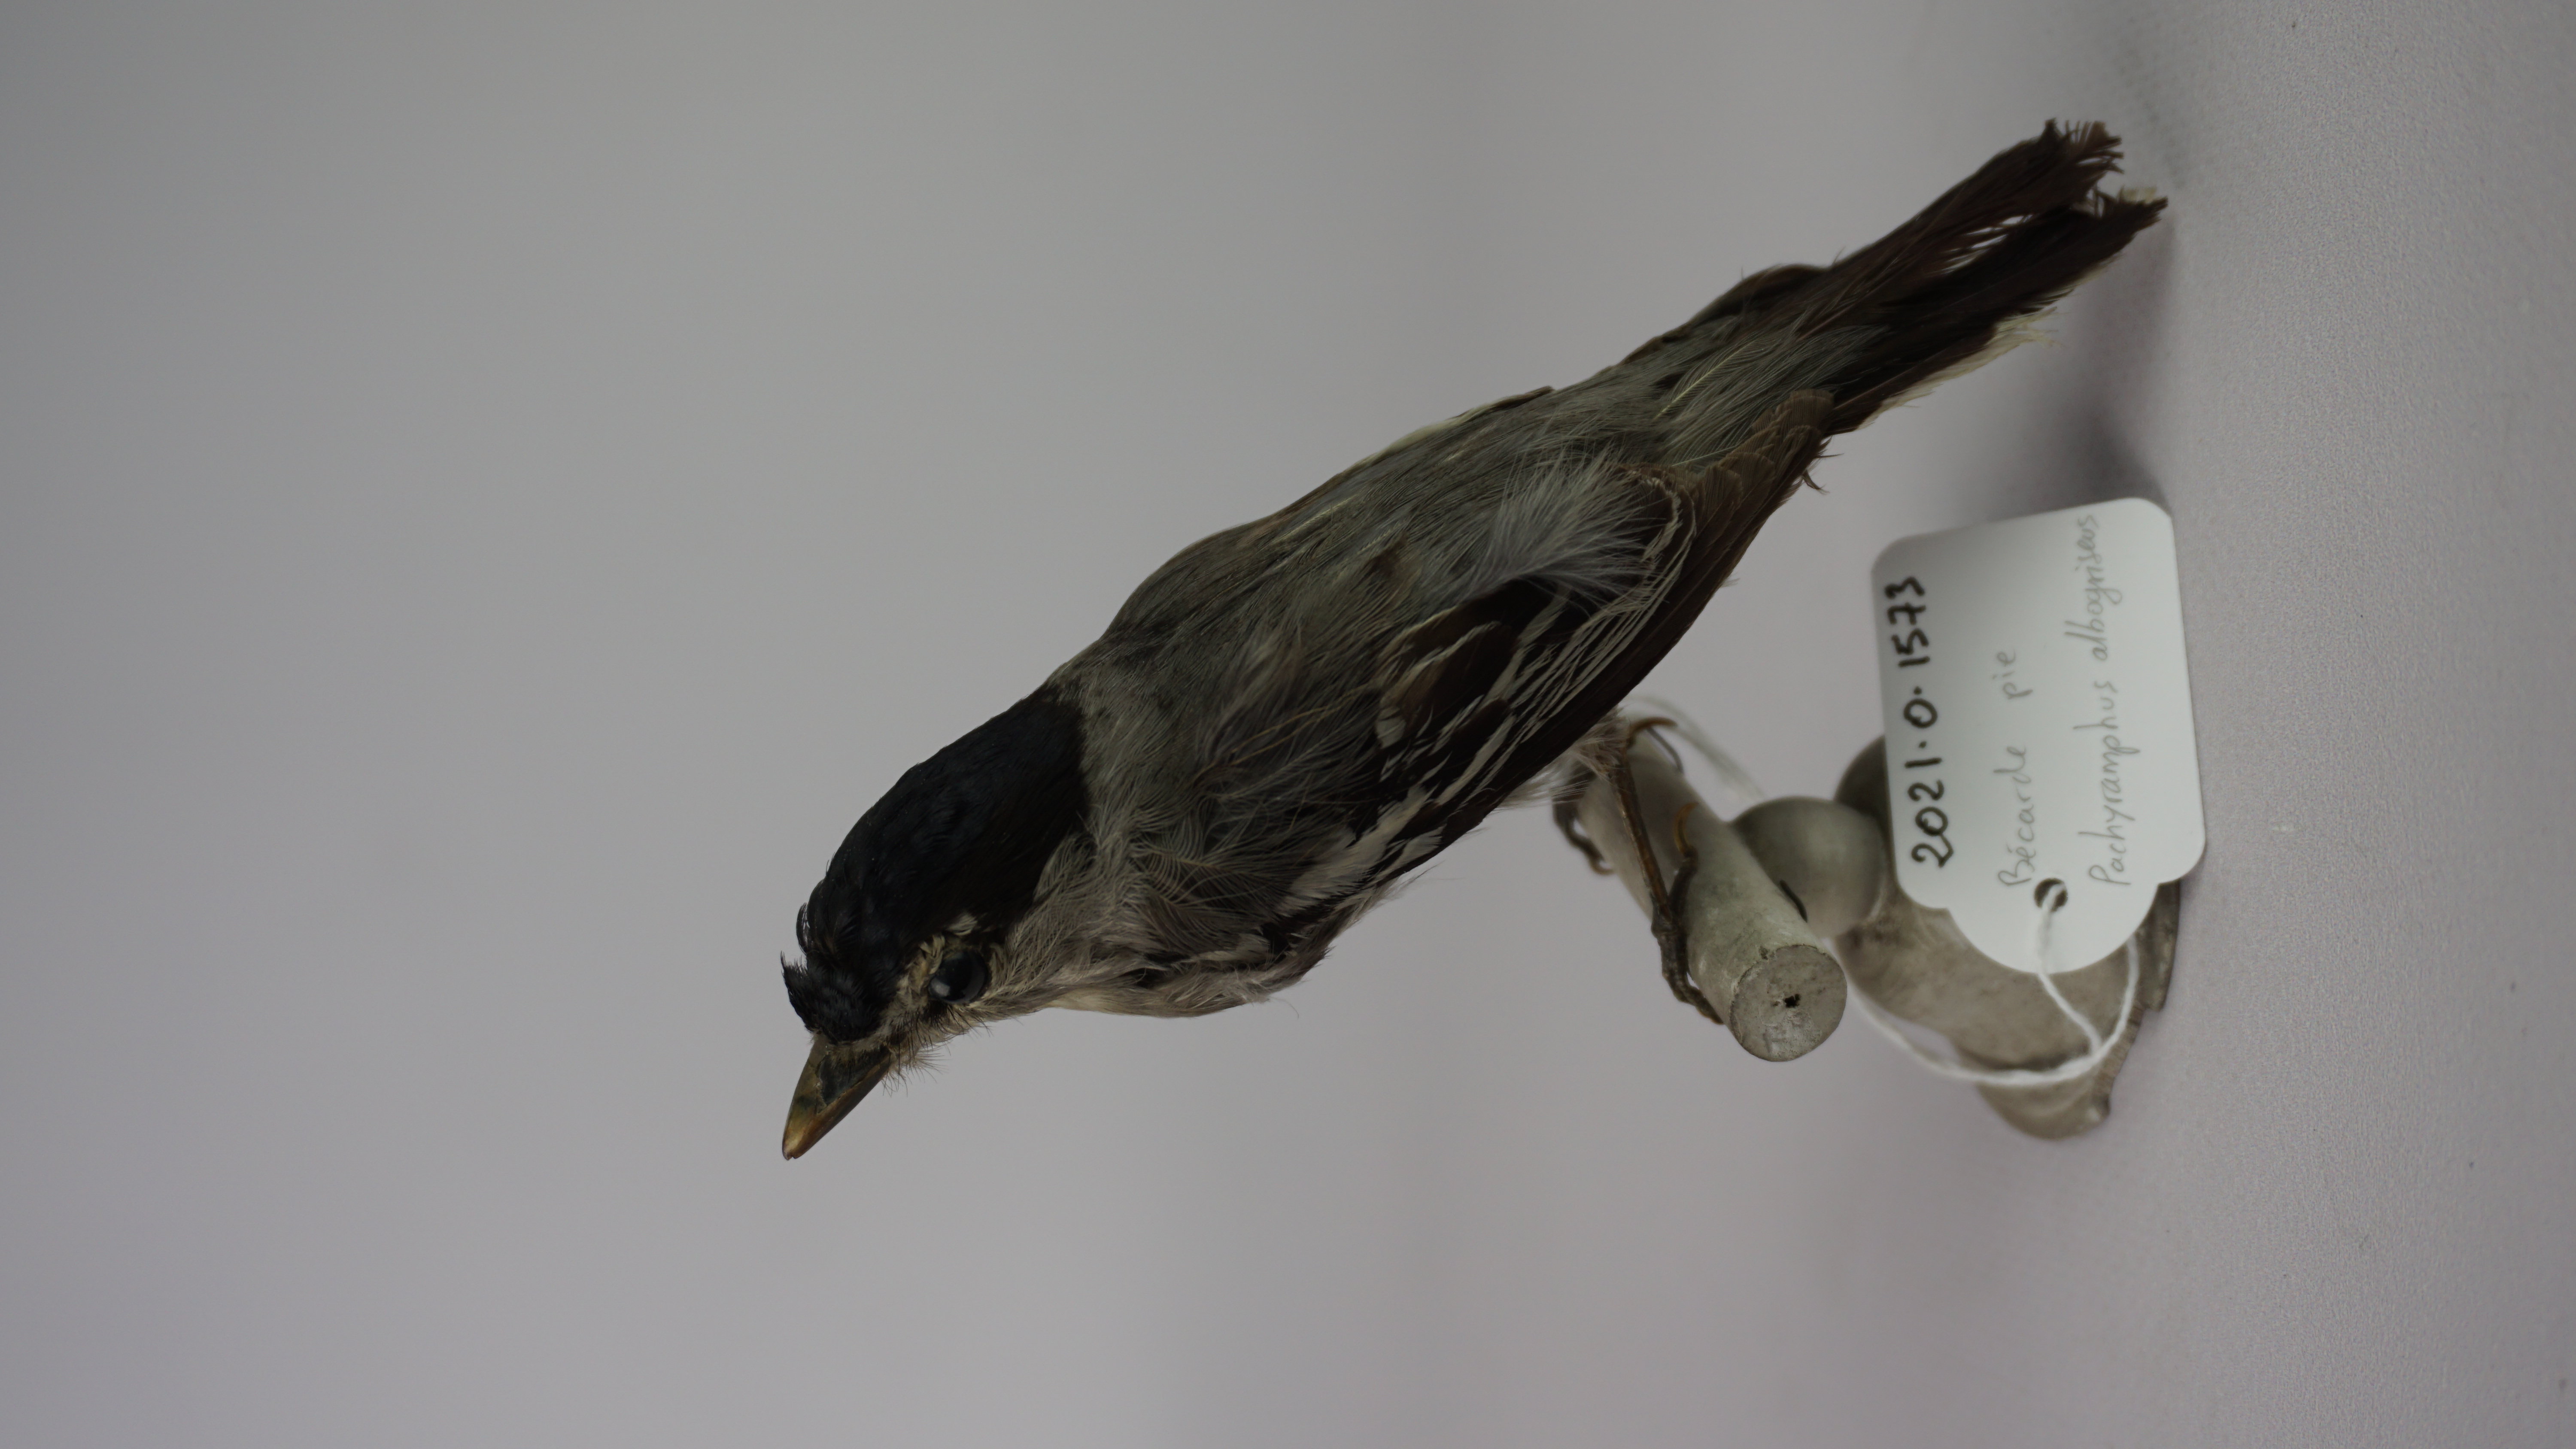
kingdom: Animalia
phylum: Chordata
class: Aves
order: Passeriformes
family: Cotingidae
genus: Pachyramphus
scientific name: Pachyramphus albogriseus
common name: Black-and-white becard
